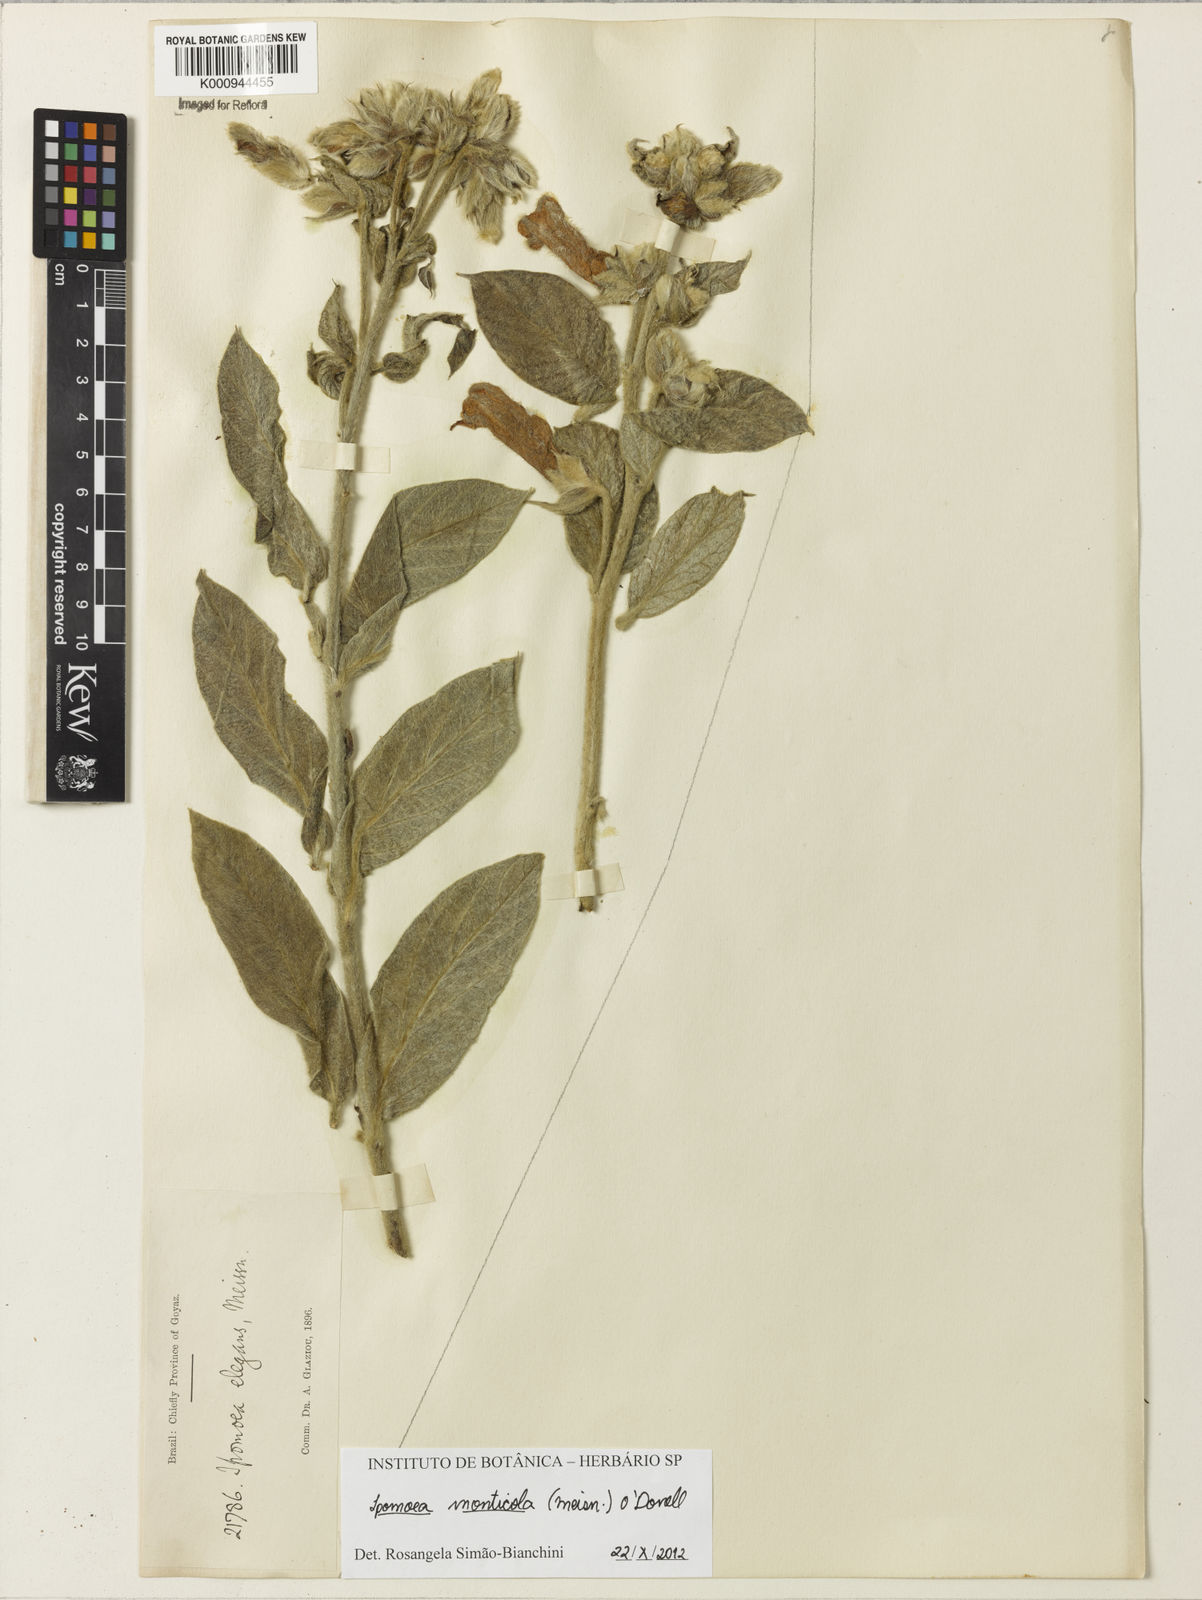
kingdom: Plantae
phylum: Tracheophyta
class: Magnoliopsida
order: Solanales
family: Convolvulaceae
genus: Ipomoea
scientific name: Ipomoea langsdorffii
